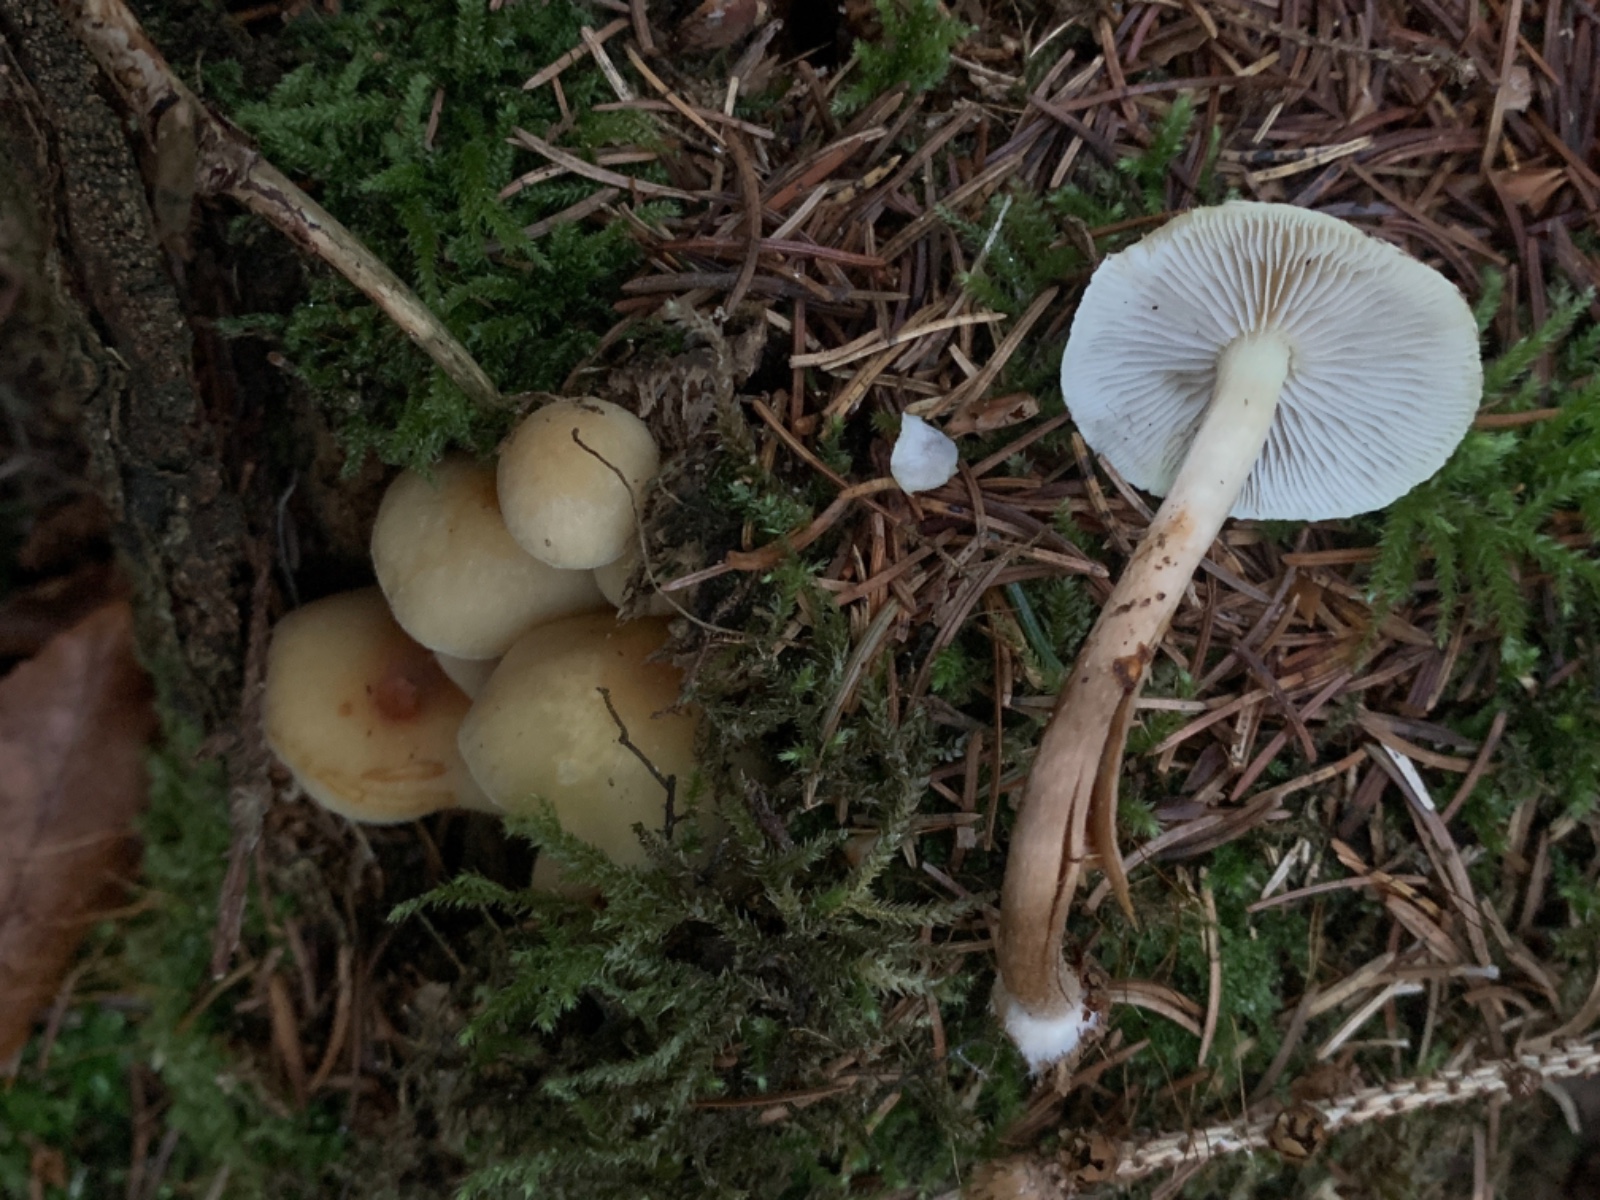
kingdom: Fungi
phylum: Basidiomycota
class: Agaricomycetes
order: Agaricales
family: Strophariaceae
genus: Hypholoma
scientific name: Hypholoma capnoides
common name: gran-svovlhat
